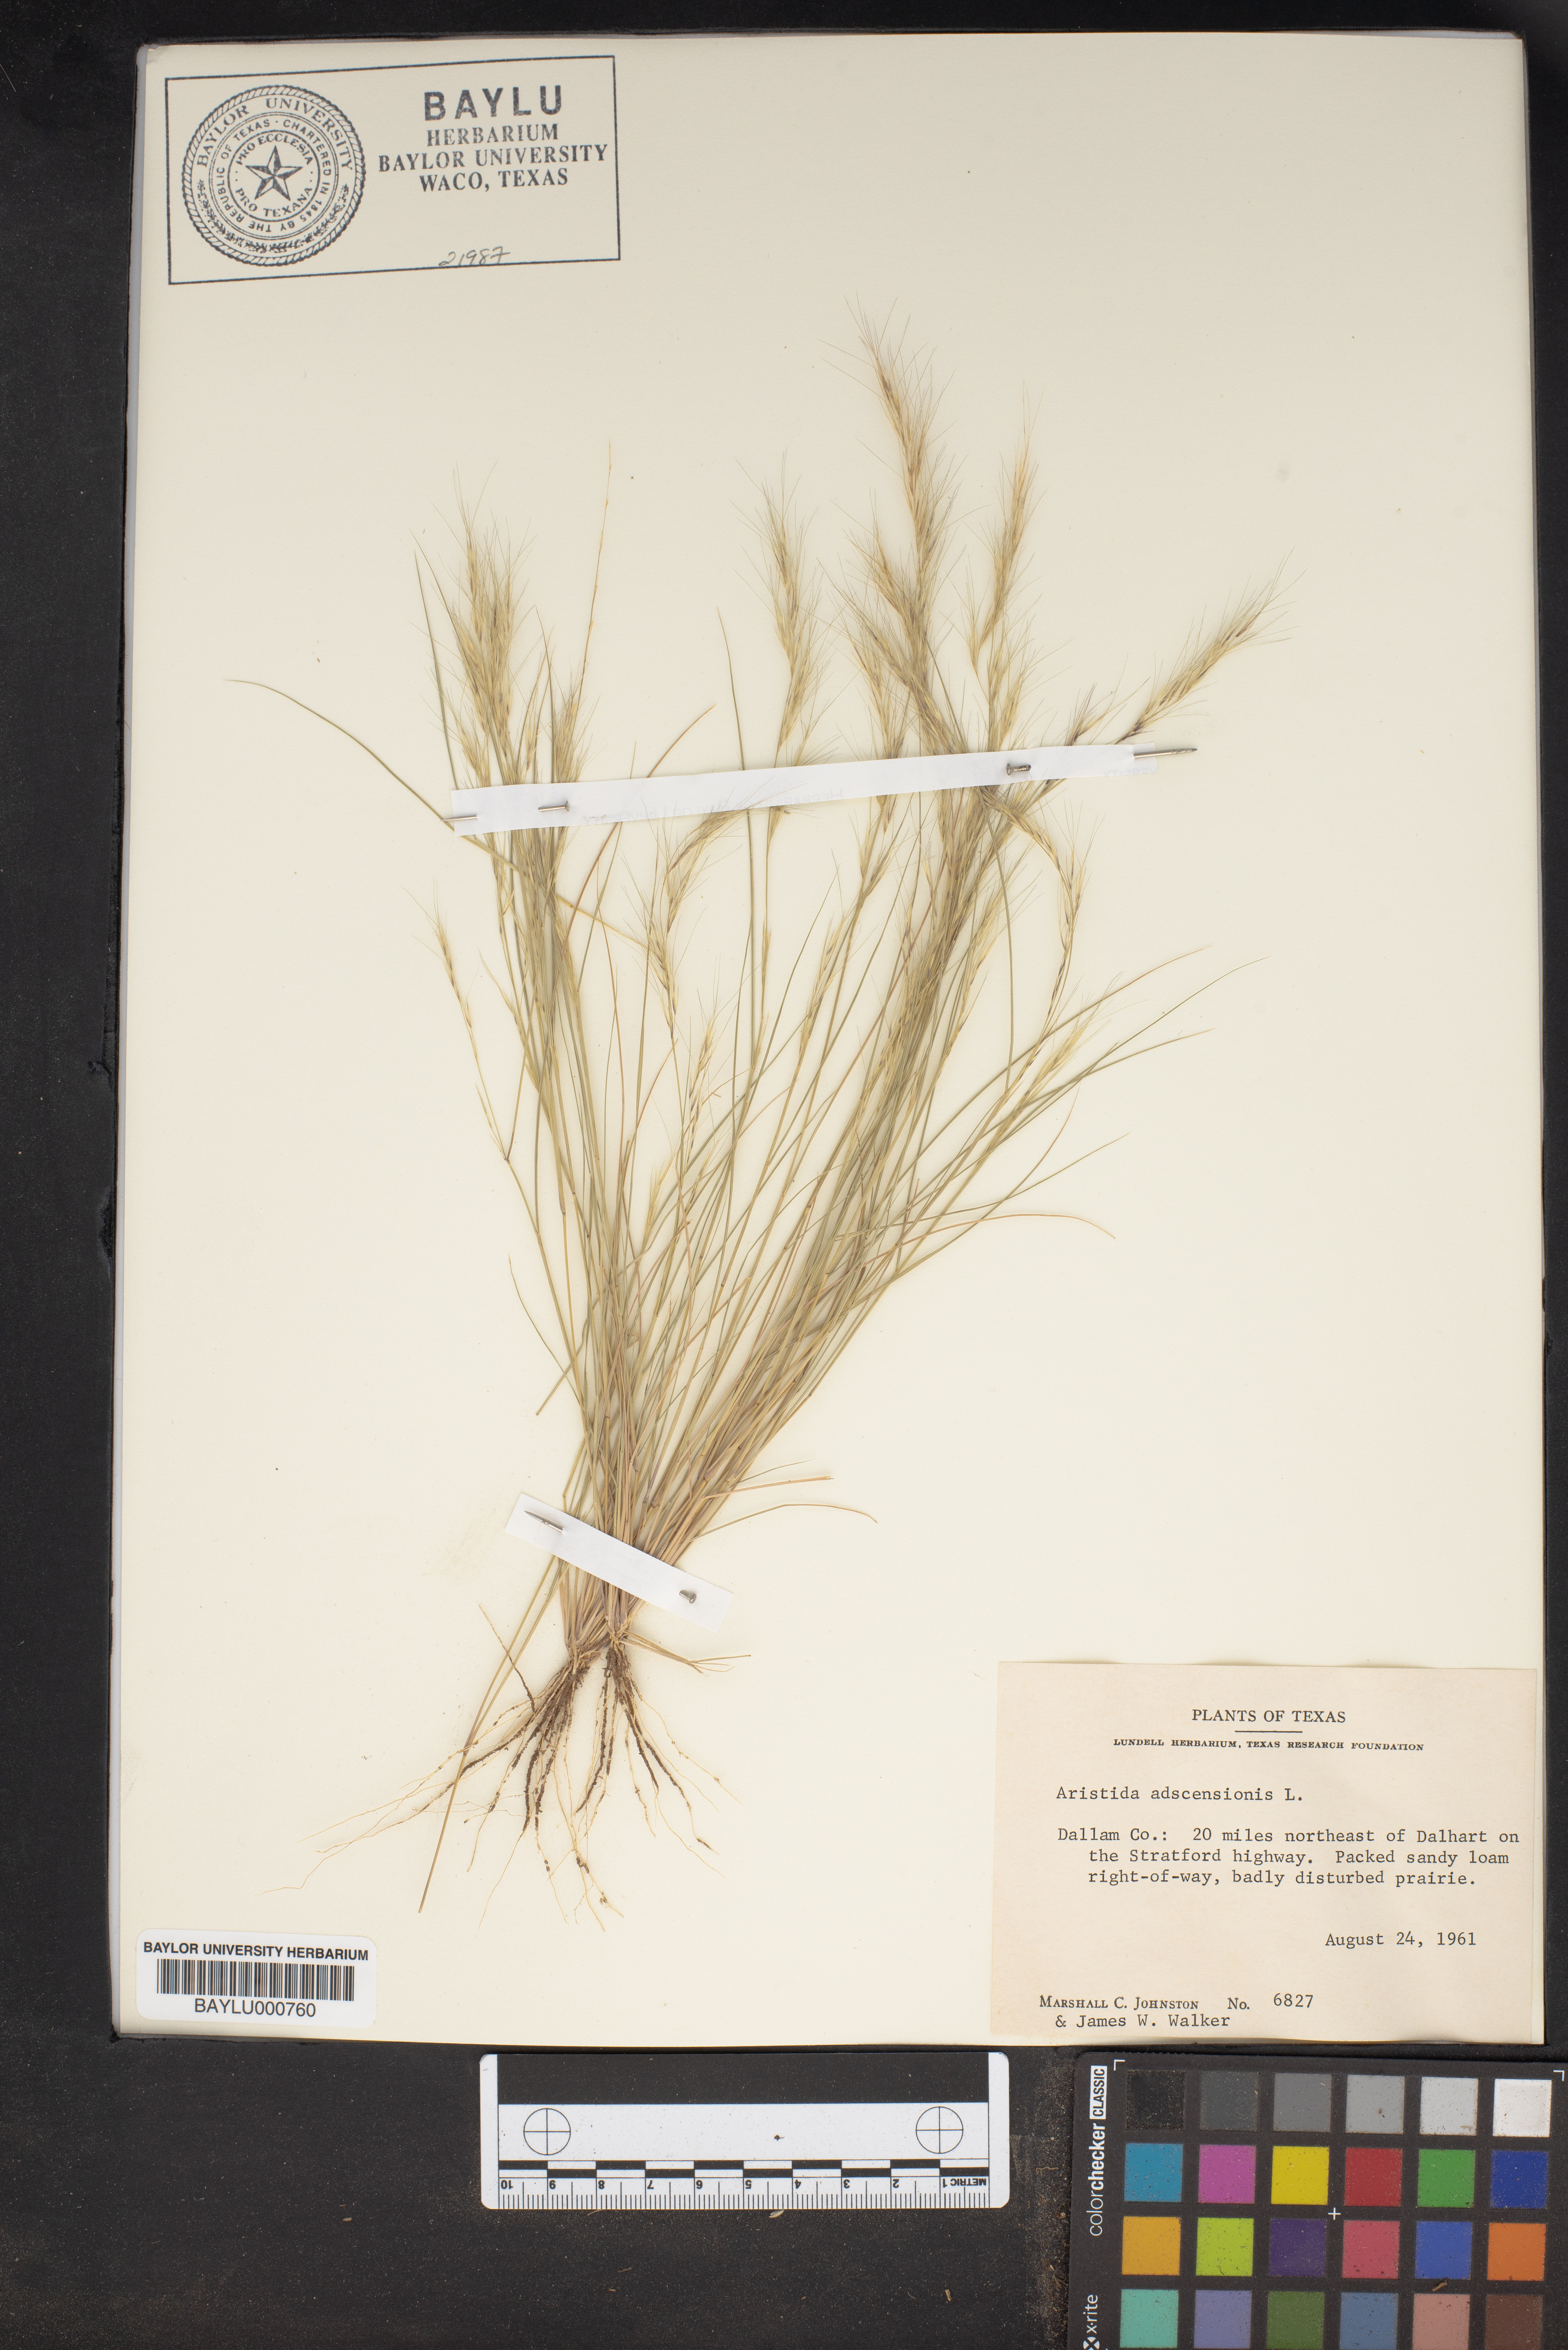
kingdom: Plantae
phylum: Tracheophyta
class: Liliopsida
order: Poales
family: Poaceae
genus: Aristida
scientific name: Aristida adscensionis
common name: Sixweeks threeawn
